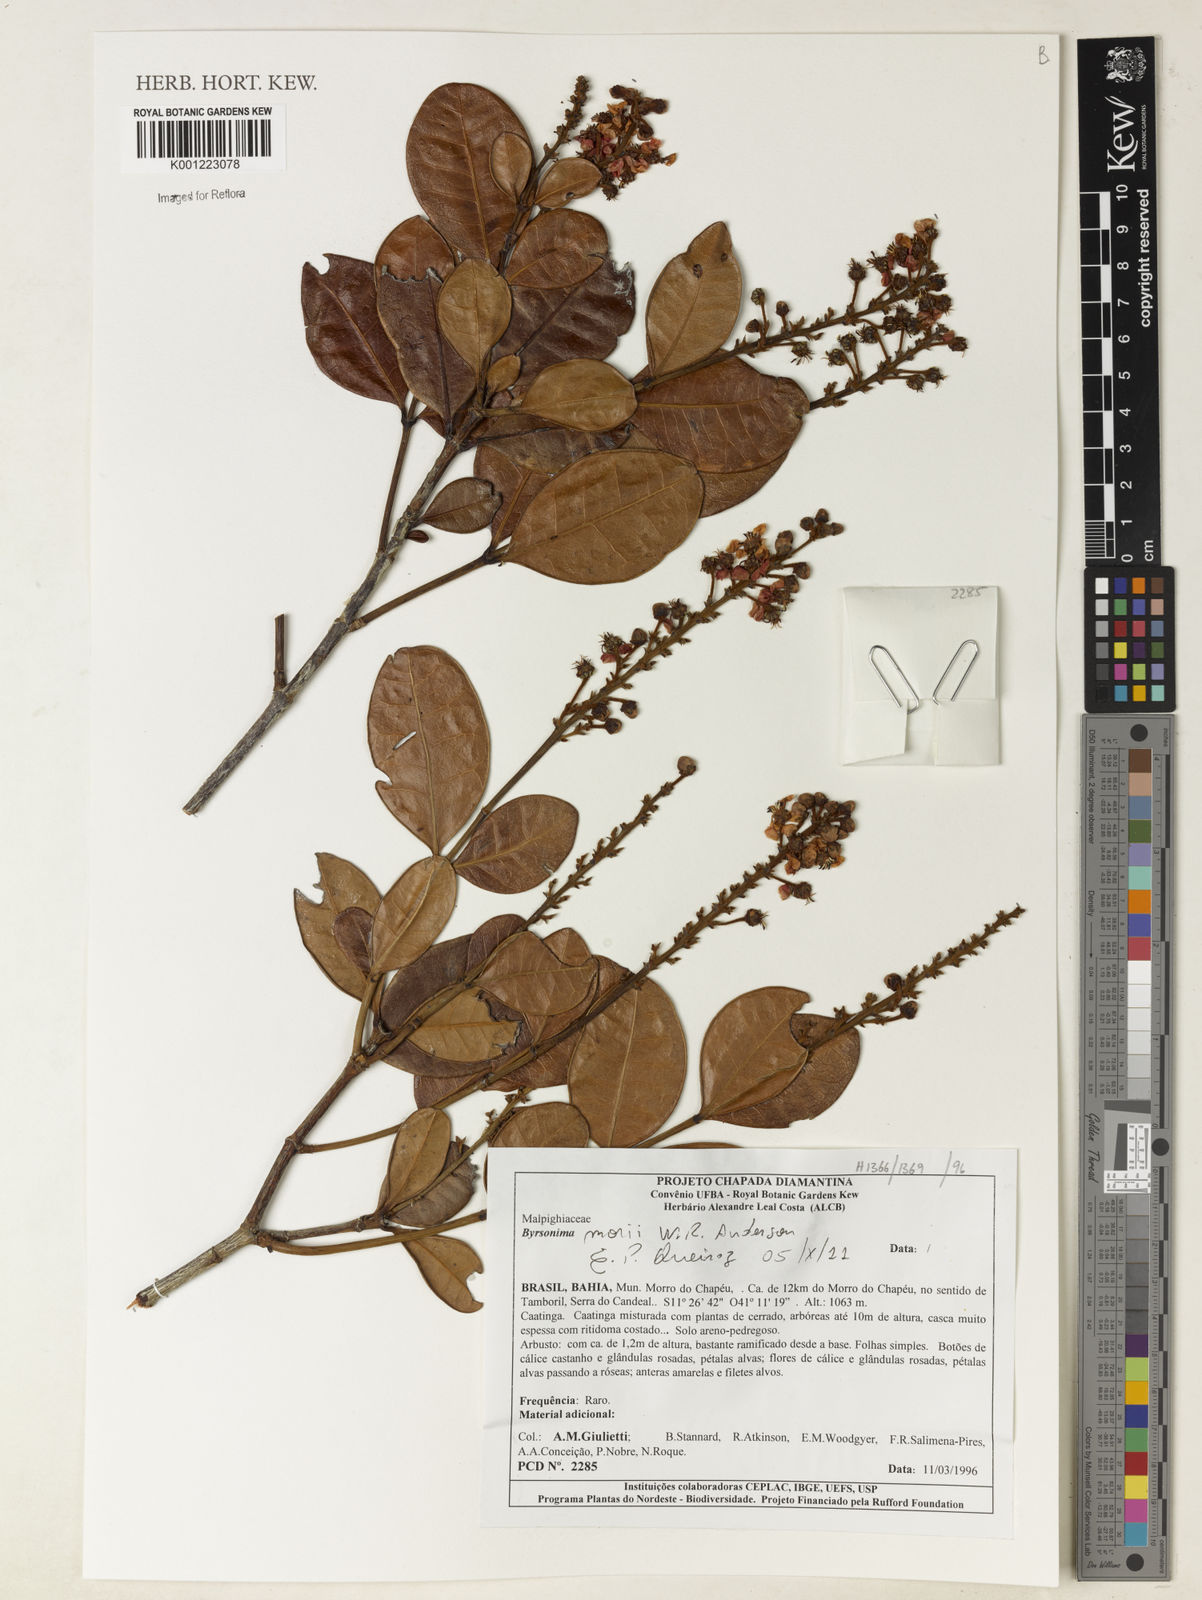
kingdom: Plantae
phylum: Tracheophyta
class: Magnoliopsida
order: Malpighiales
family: Malpighiaceae
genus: Byrsonima
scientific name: Byrsonima morii
